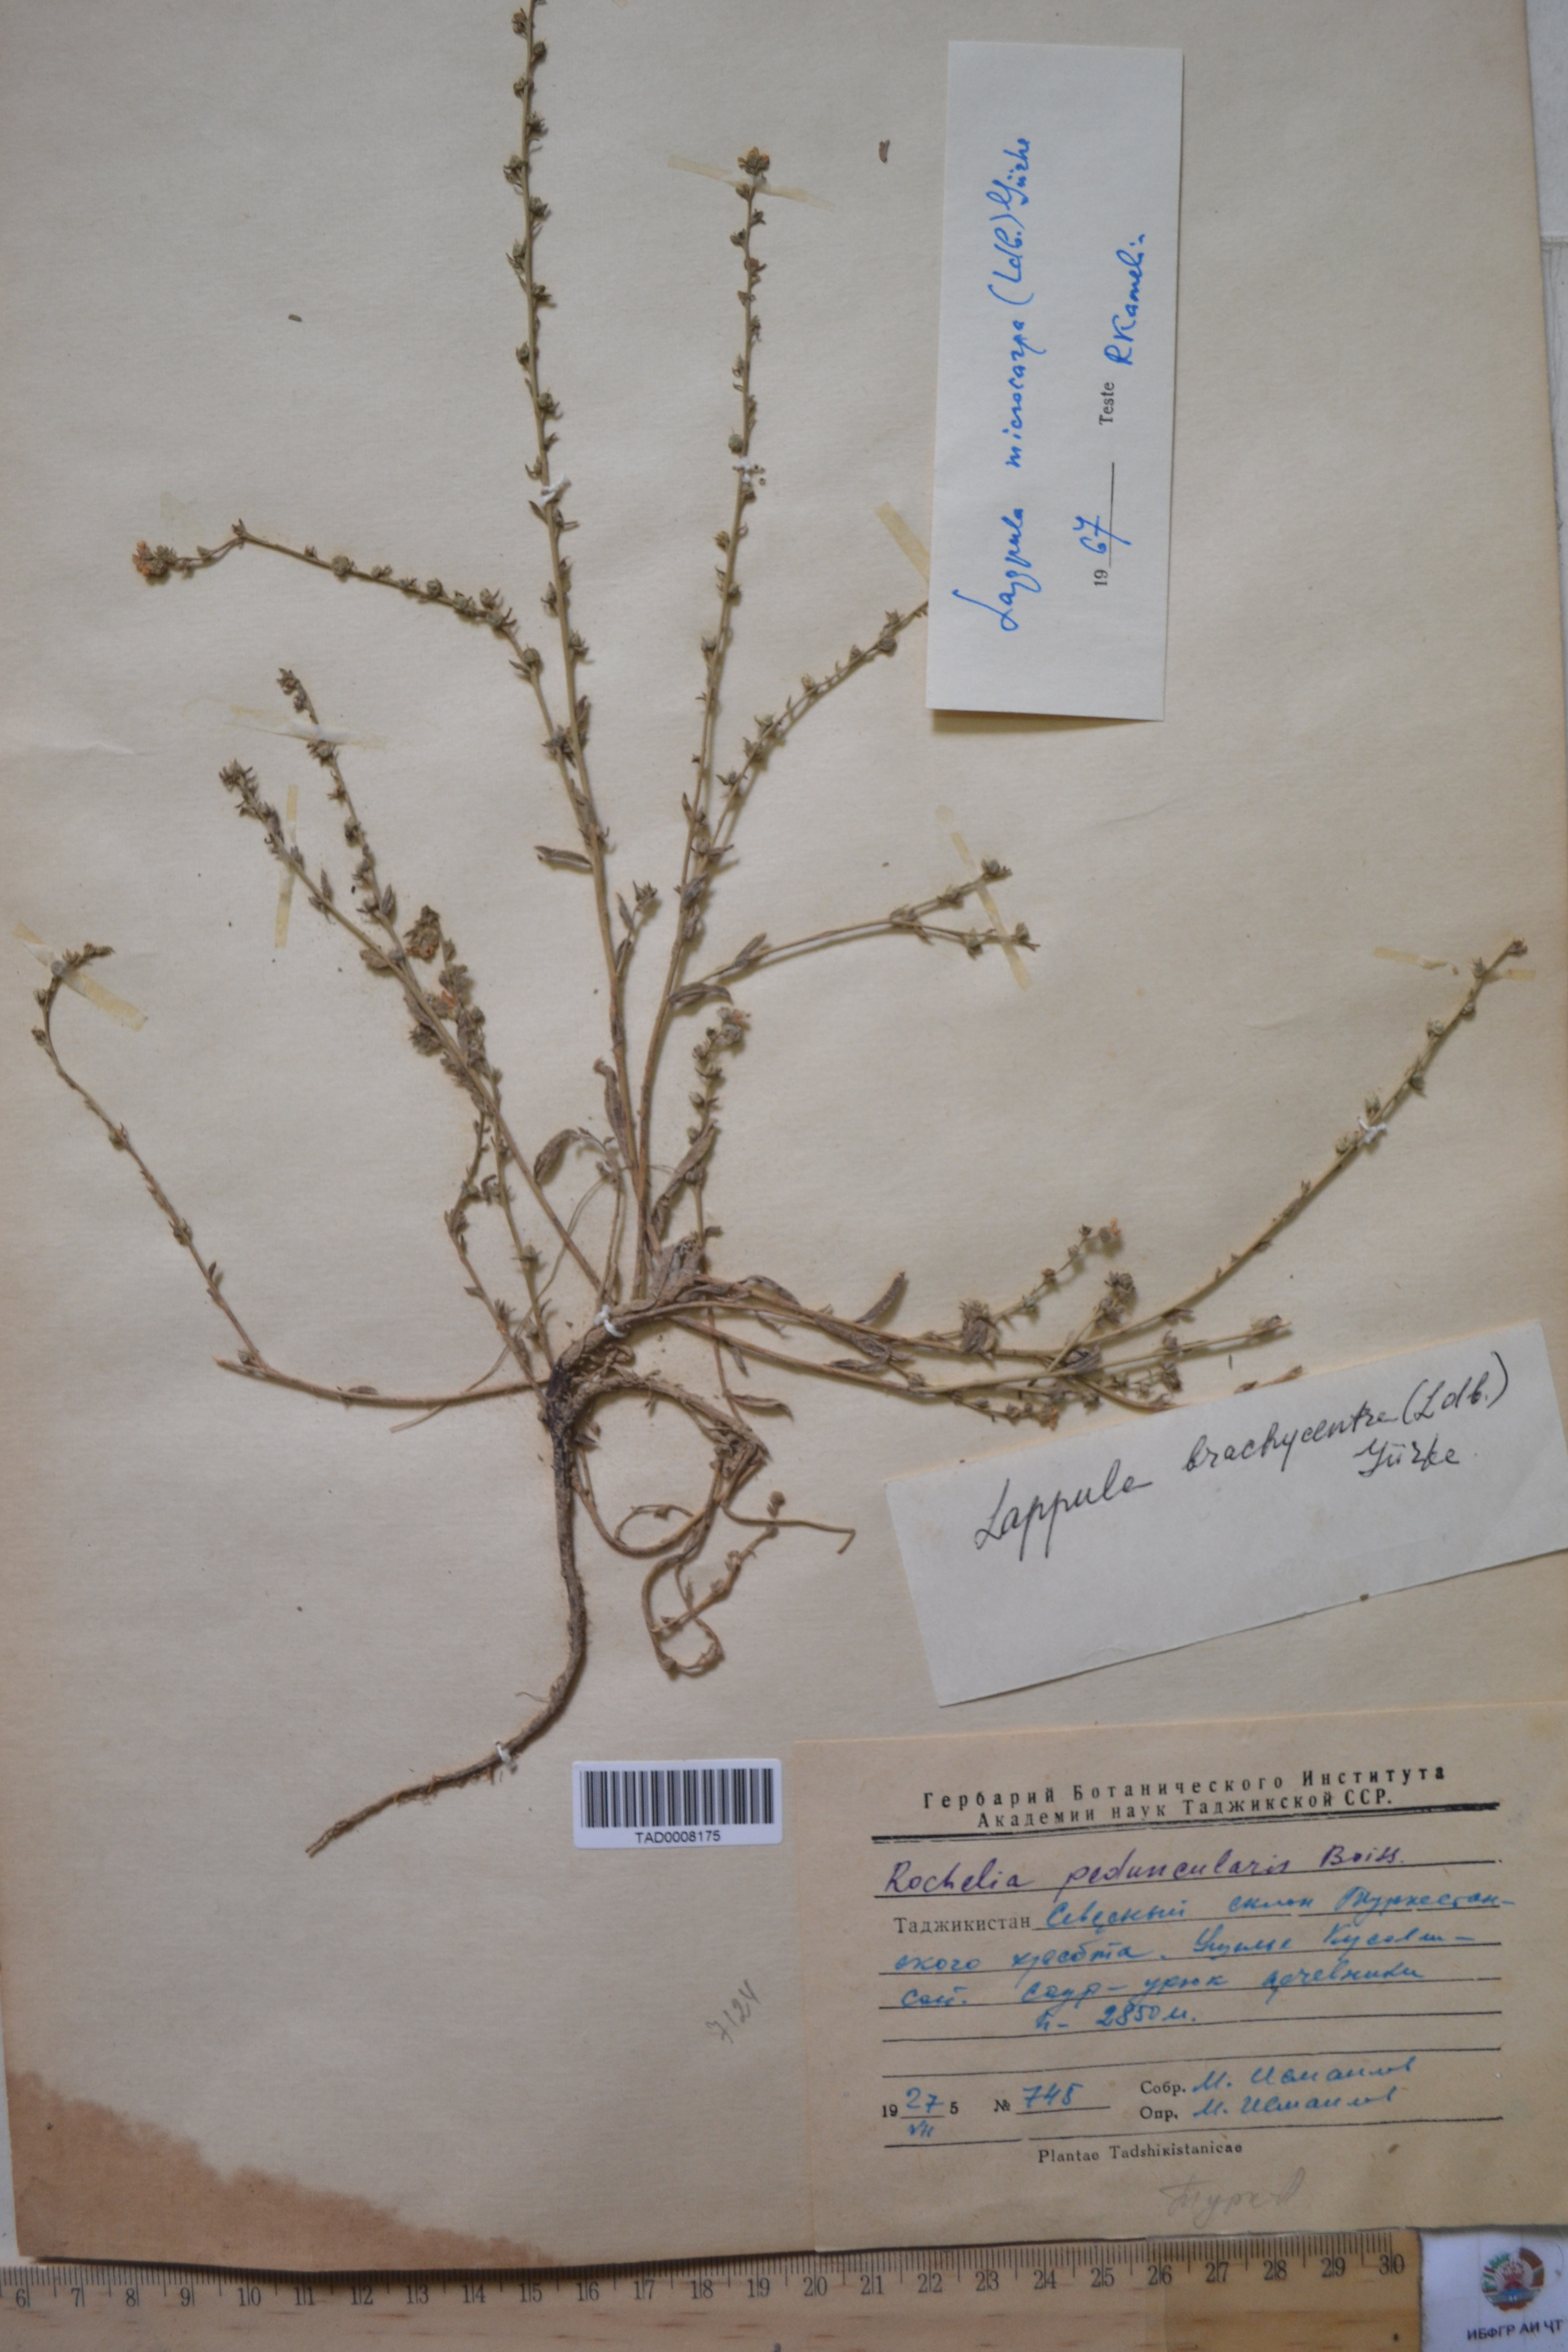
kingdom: Plantae
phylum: Tracheophyta
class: Magnoliopsida
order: Boraginales
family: Boraginaceae
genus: Rochelia
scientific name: Rochelia peduncularis
